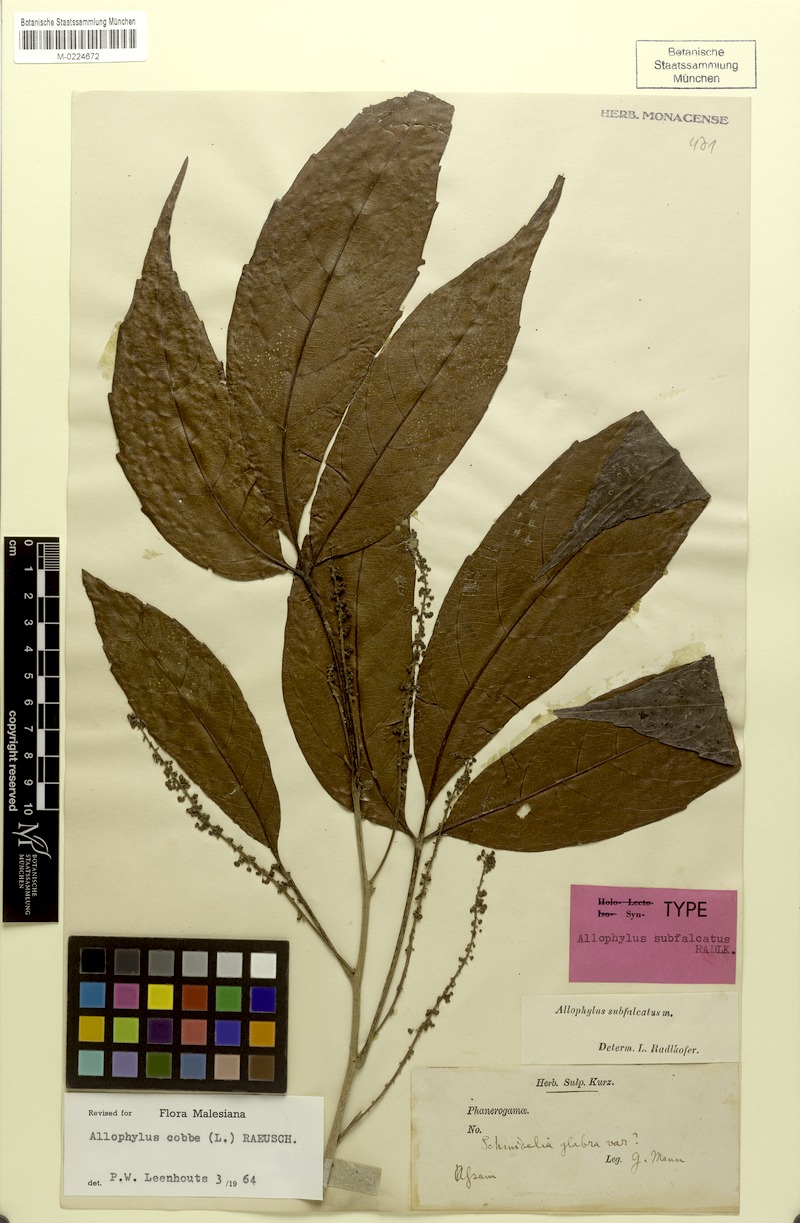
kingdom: Plantae
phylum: Tracheophyta
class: Magnoliopsida
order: Sapindales
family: Sapindaceae
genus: Allophylus
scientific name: Allophylus subfalcatus
